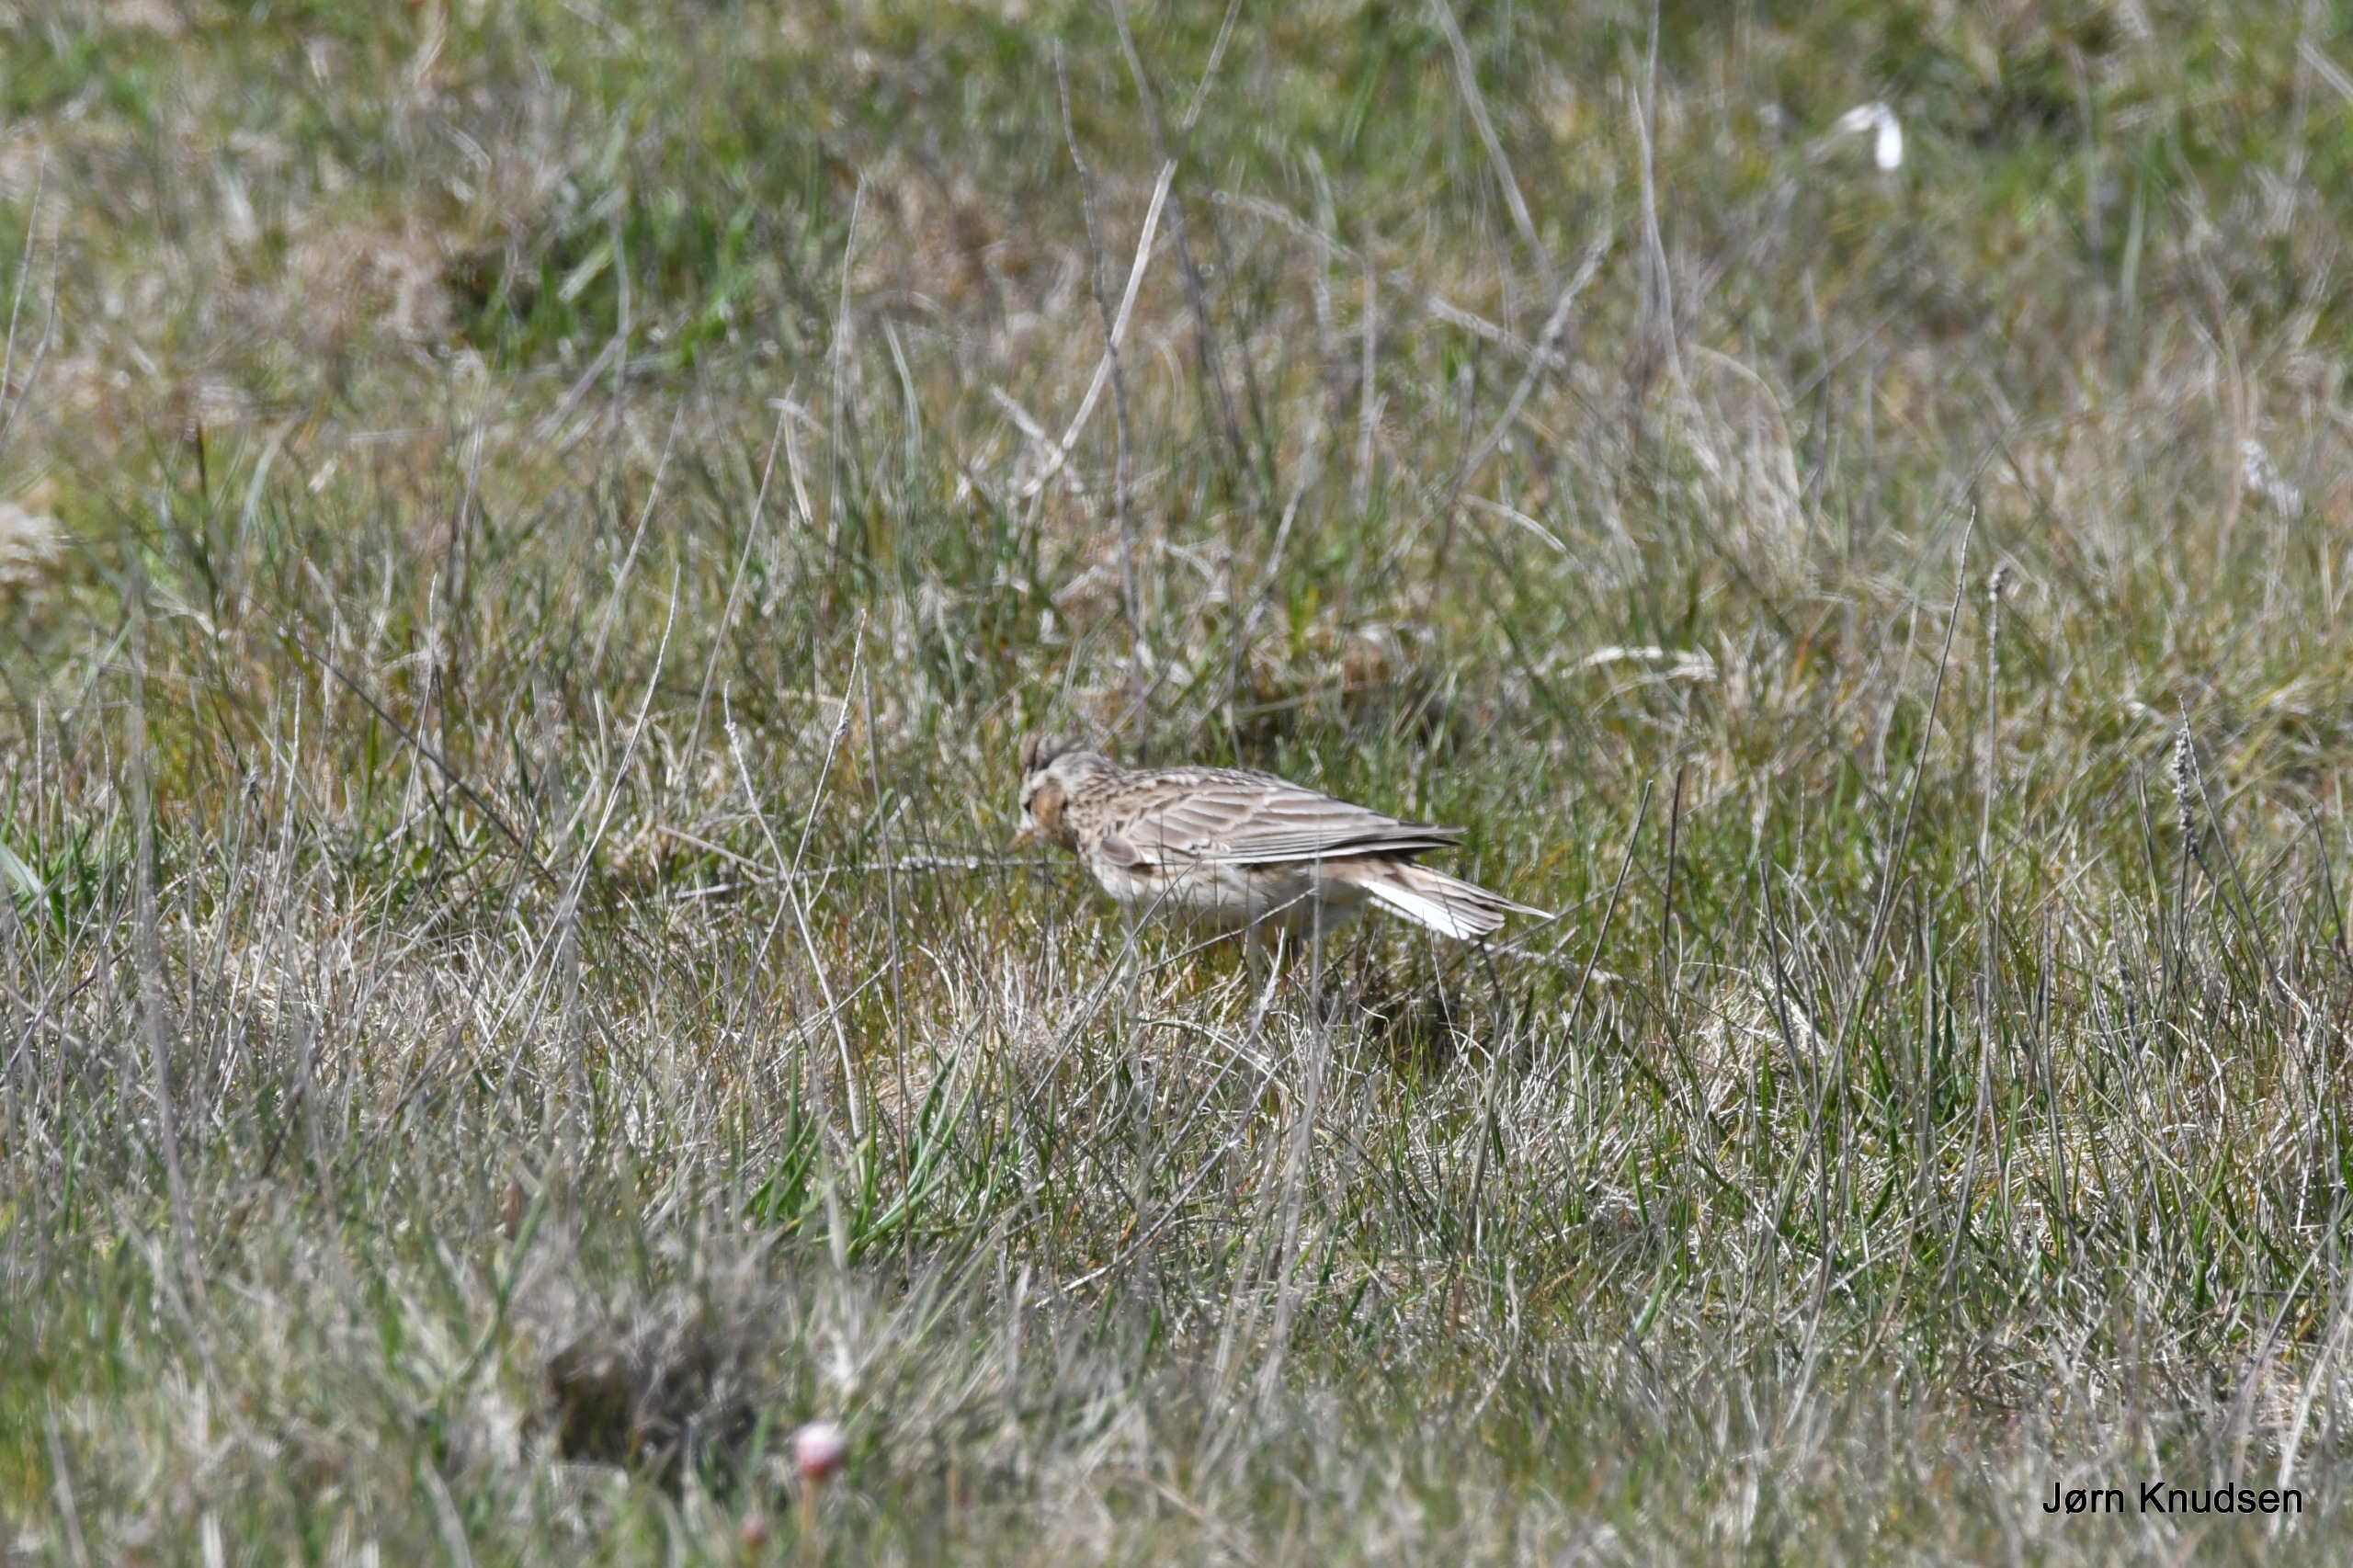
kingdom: Animalia
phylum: Chordata
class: Aves
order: Passeriformes
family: Alaudidae
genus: Alauda
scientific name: Alauda arvensis
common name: Sanglærke
